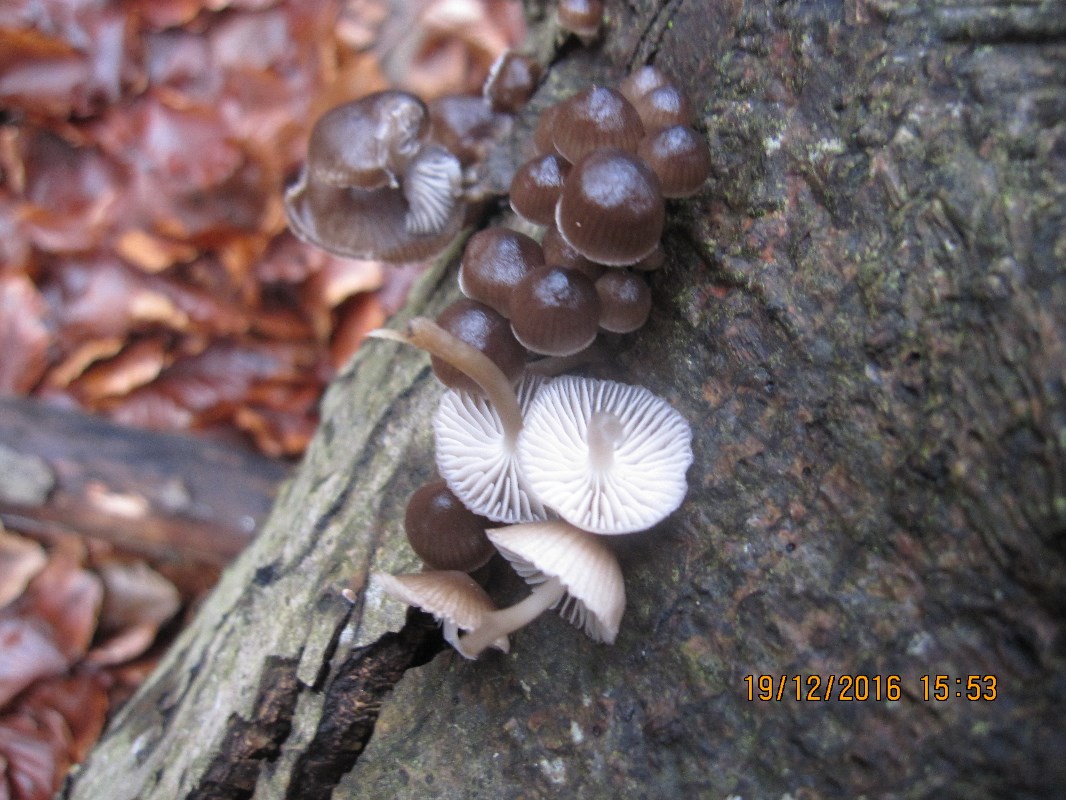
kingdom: Fungi
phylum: Basidiomycota
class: Agaricomycetes
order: Agaricales
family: Mycenaceae
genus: Mycena
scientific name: Mycena tintinnabulum
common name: vinter-huesvamp
